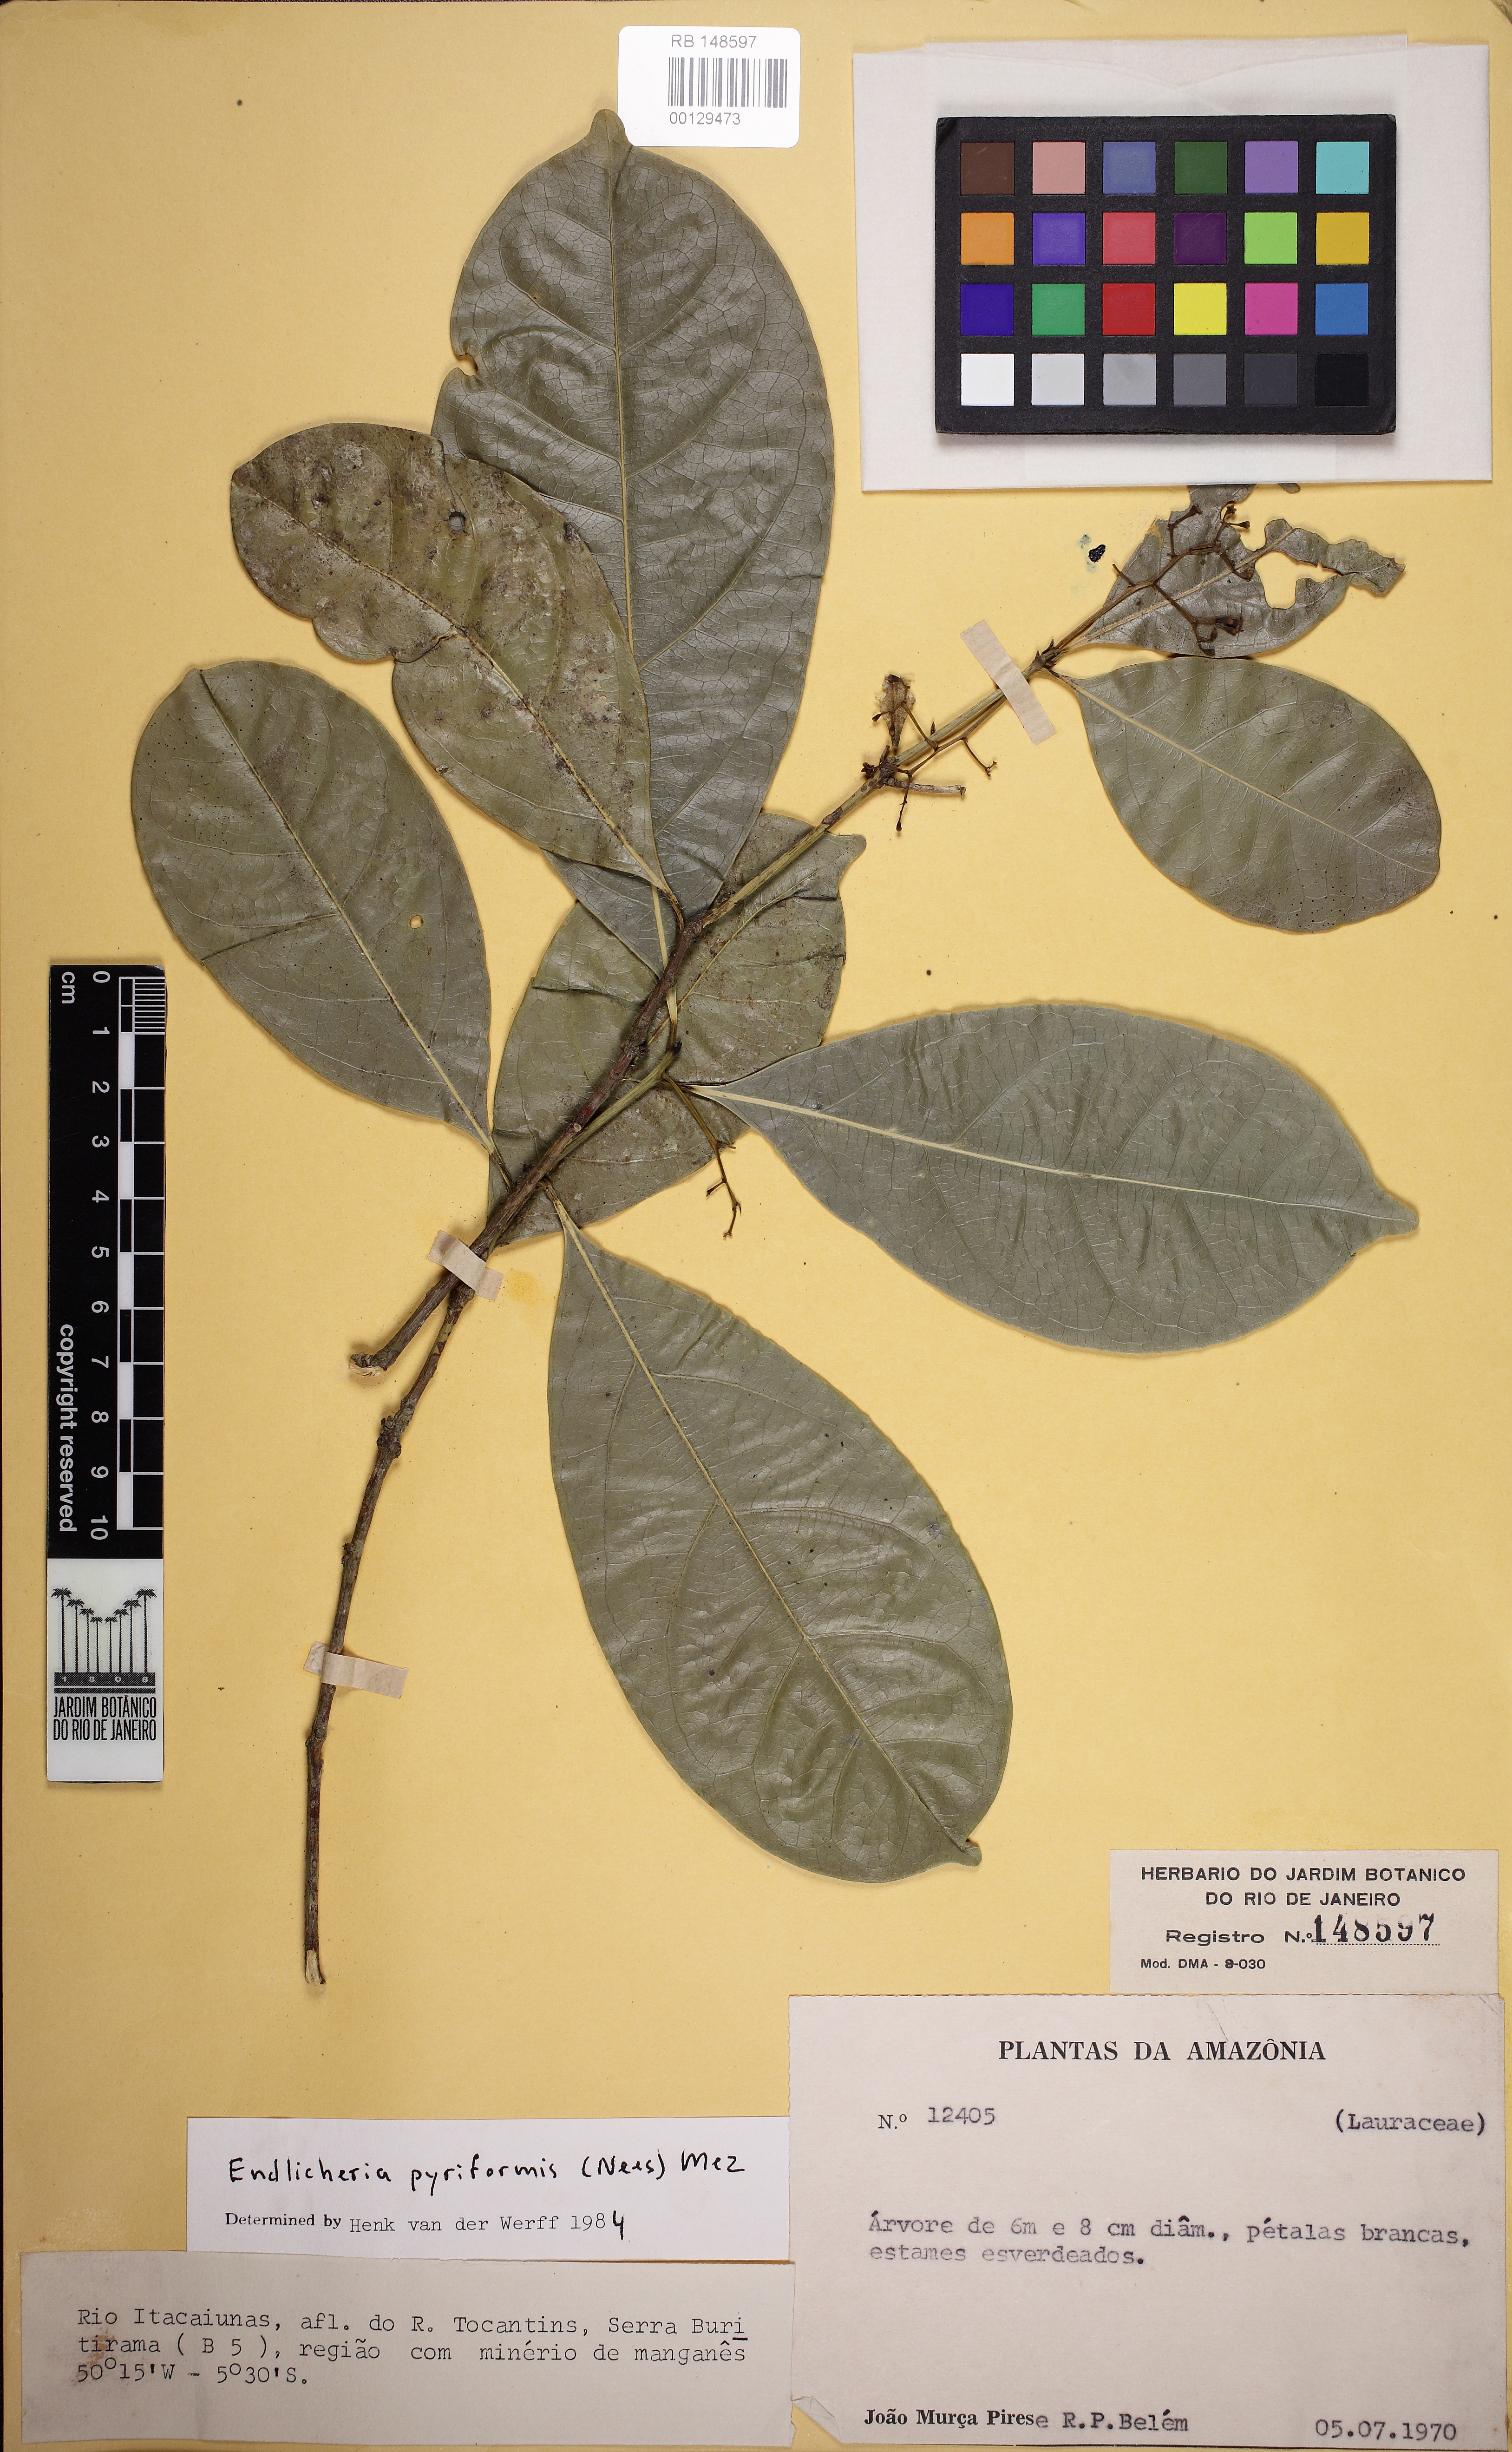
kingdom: Plantae
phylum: Tracheophyta
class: Magnoliopsida
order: Laurales
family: Lauraceae
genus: Endlicheria
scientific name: Endlicheria pyriformis
